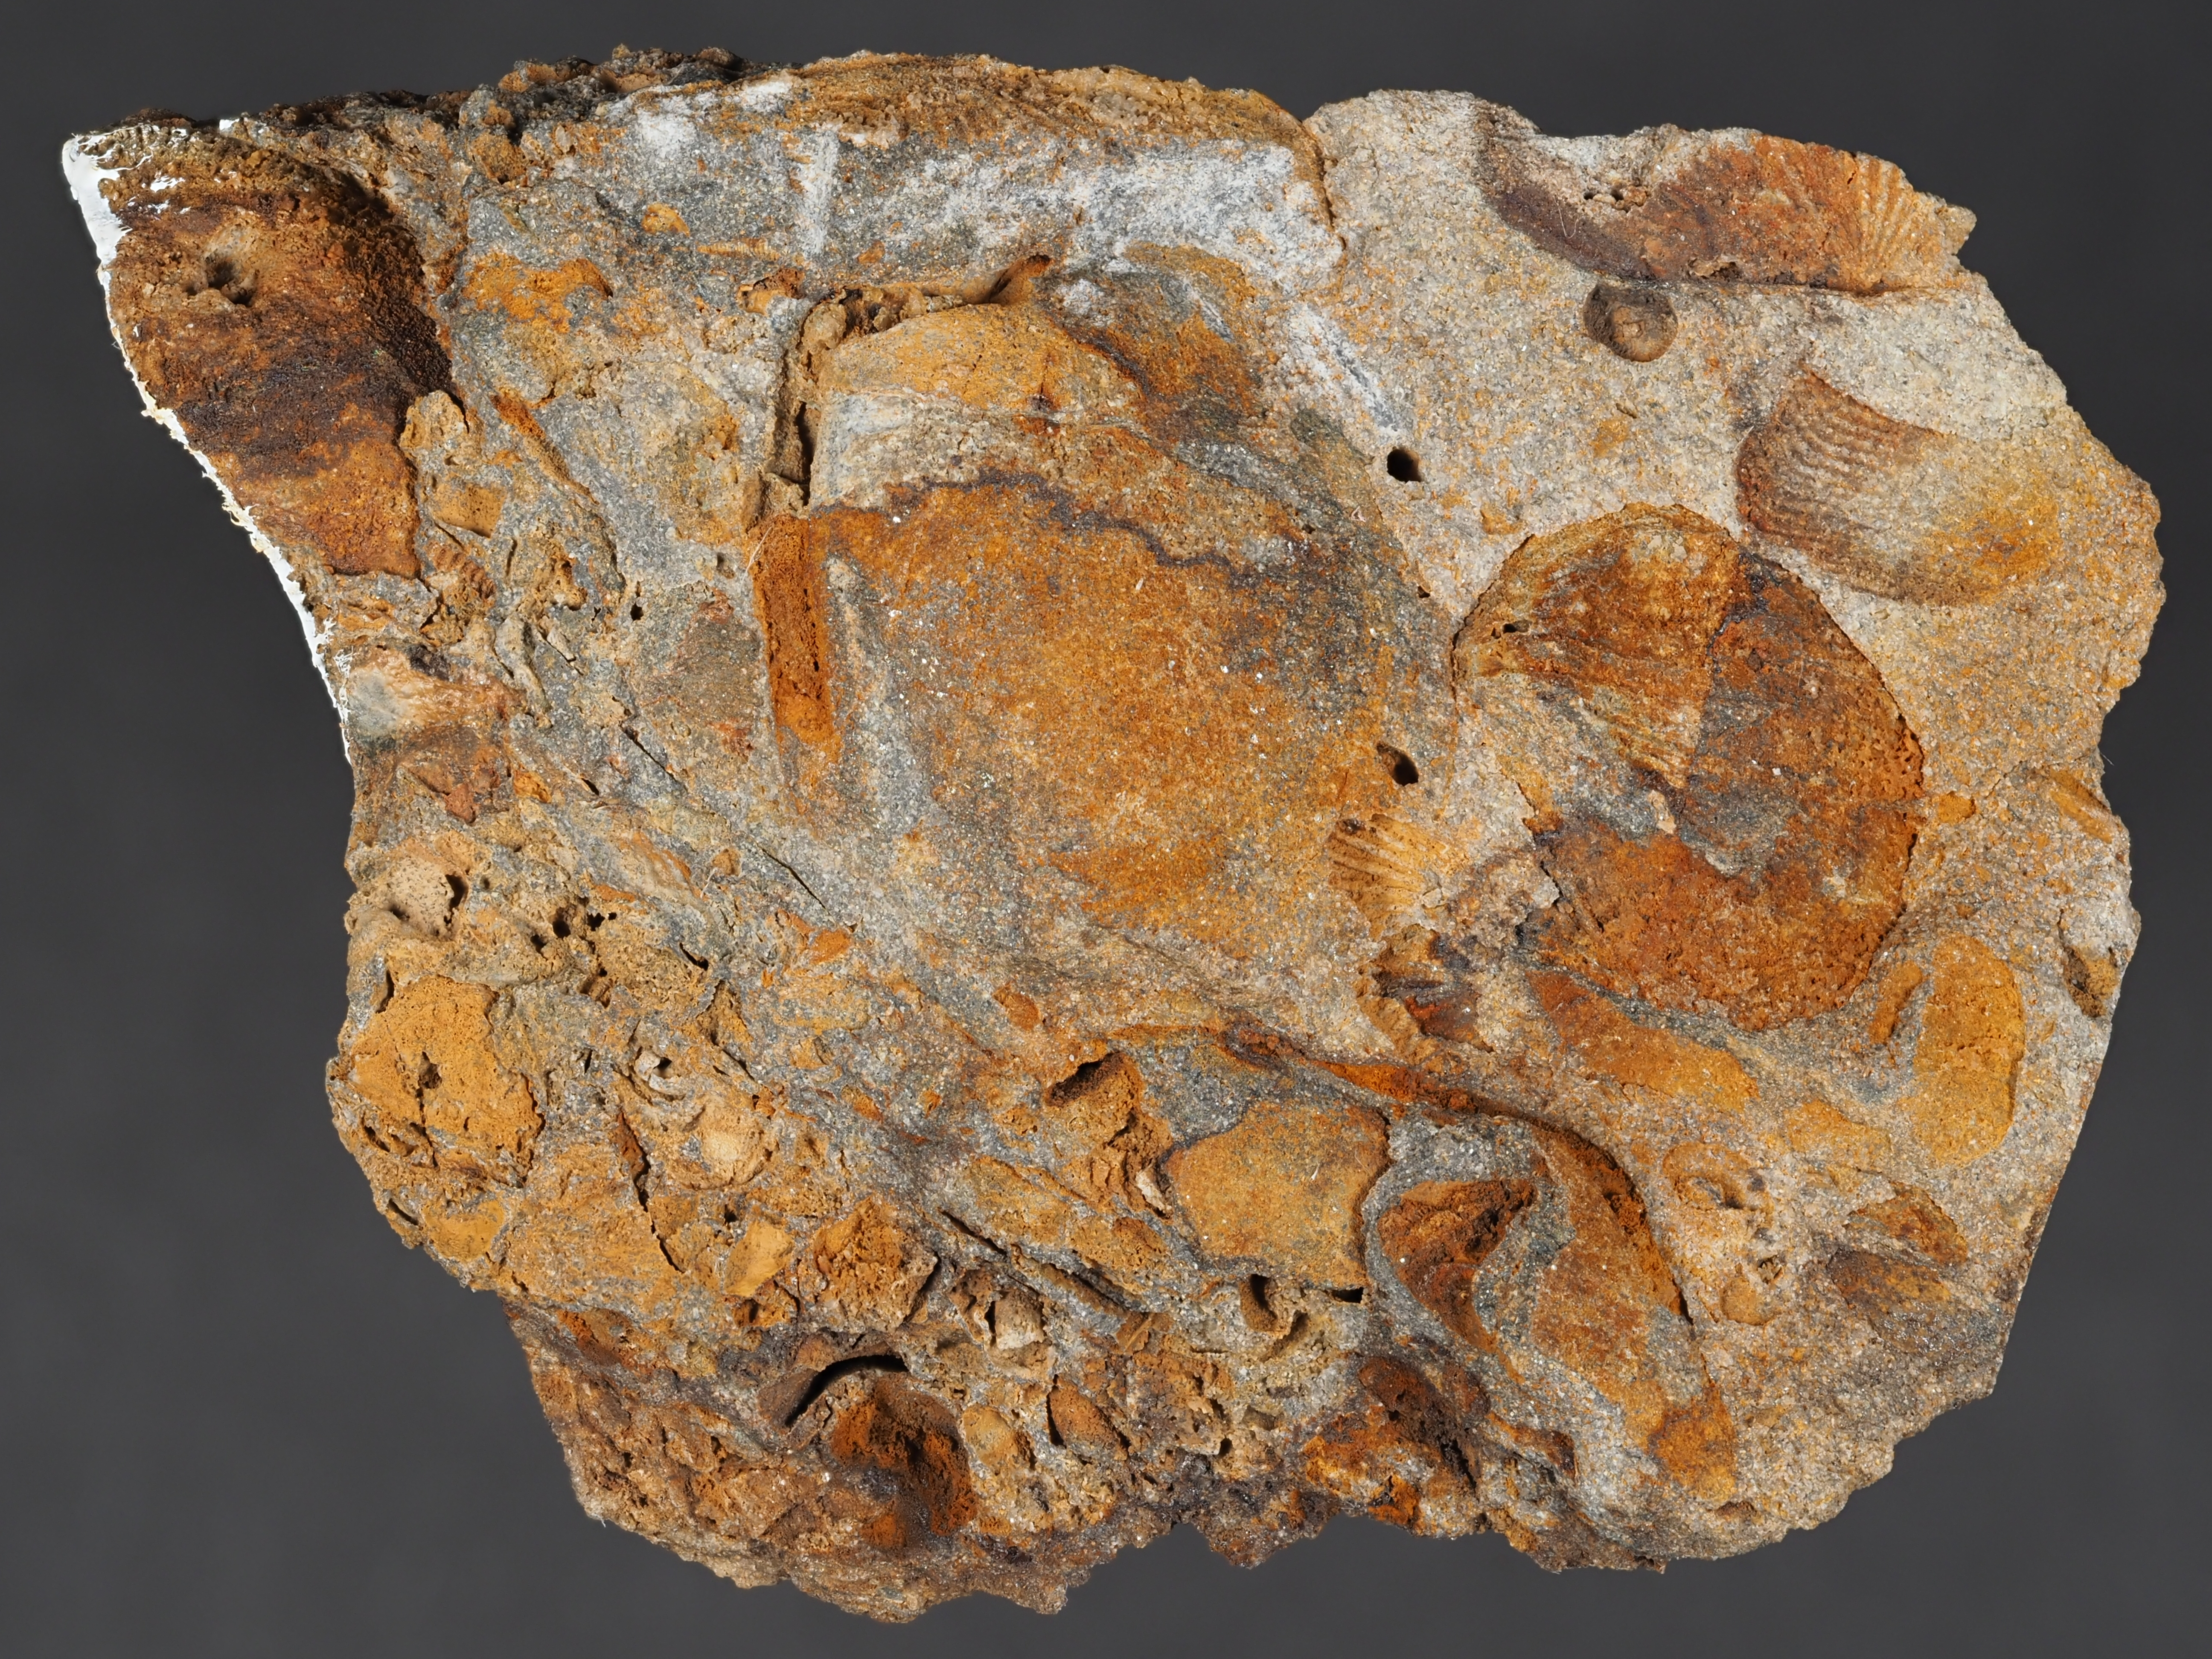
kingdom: Animalia
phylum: Mollusca
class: Bivalvia
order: Carditida
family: Crassatellidae
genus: Cypricardella
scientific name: Cypricardella
